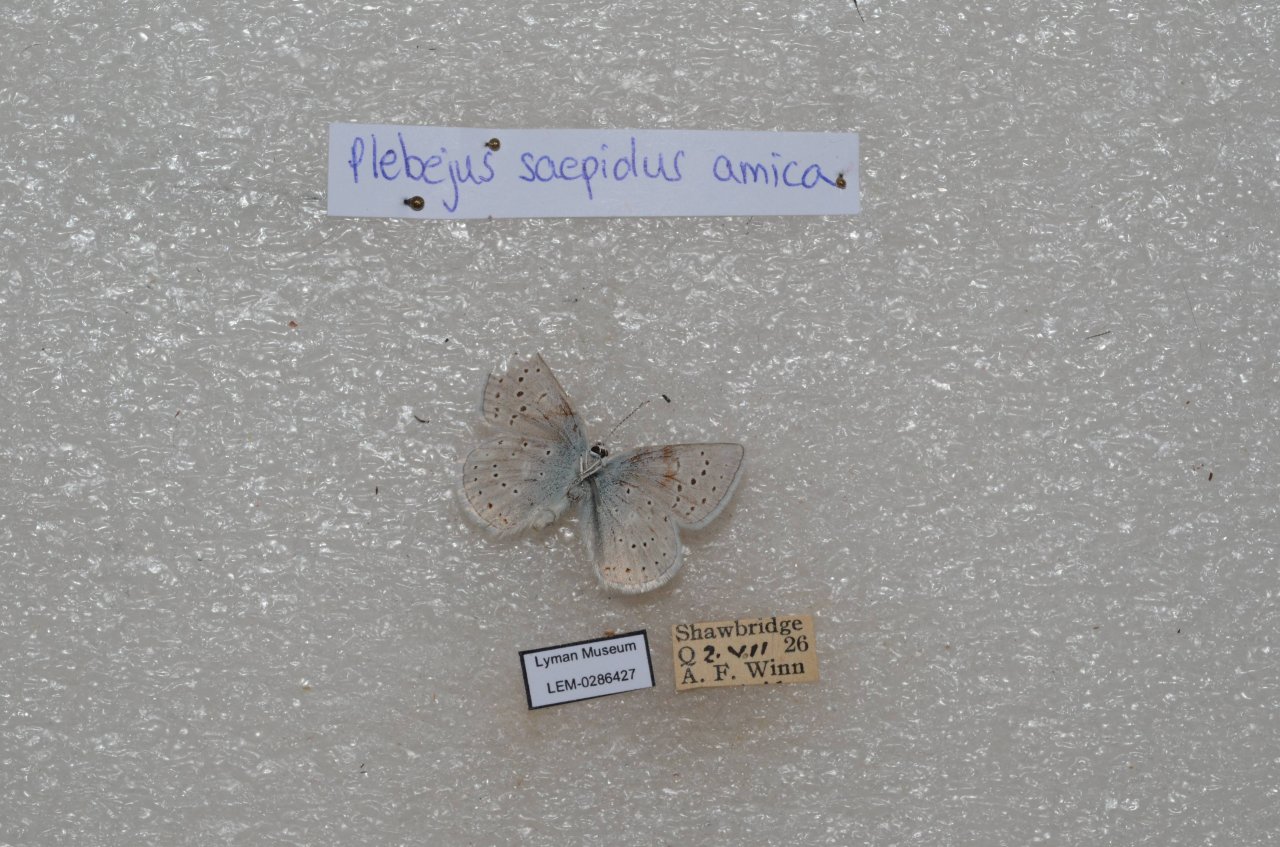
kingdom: Animalia
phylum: Arthropoda
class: Insecta
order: Lepidoptera
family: Lycaenidae
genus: Plebejus
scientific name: Plebejus saepiolus
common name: Greenish Blue
